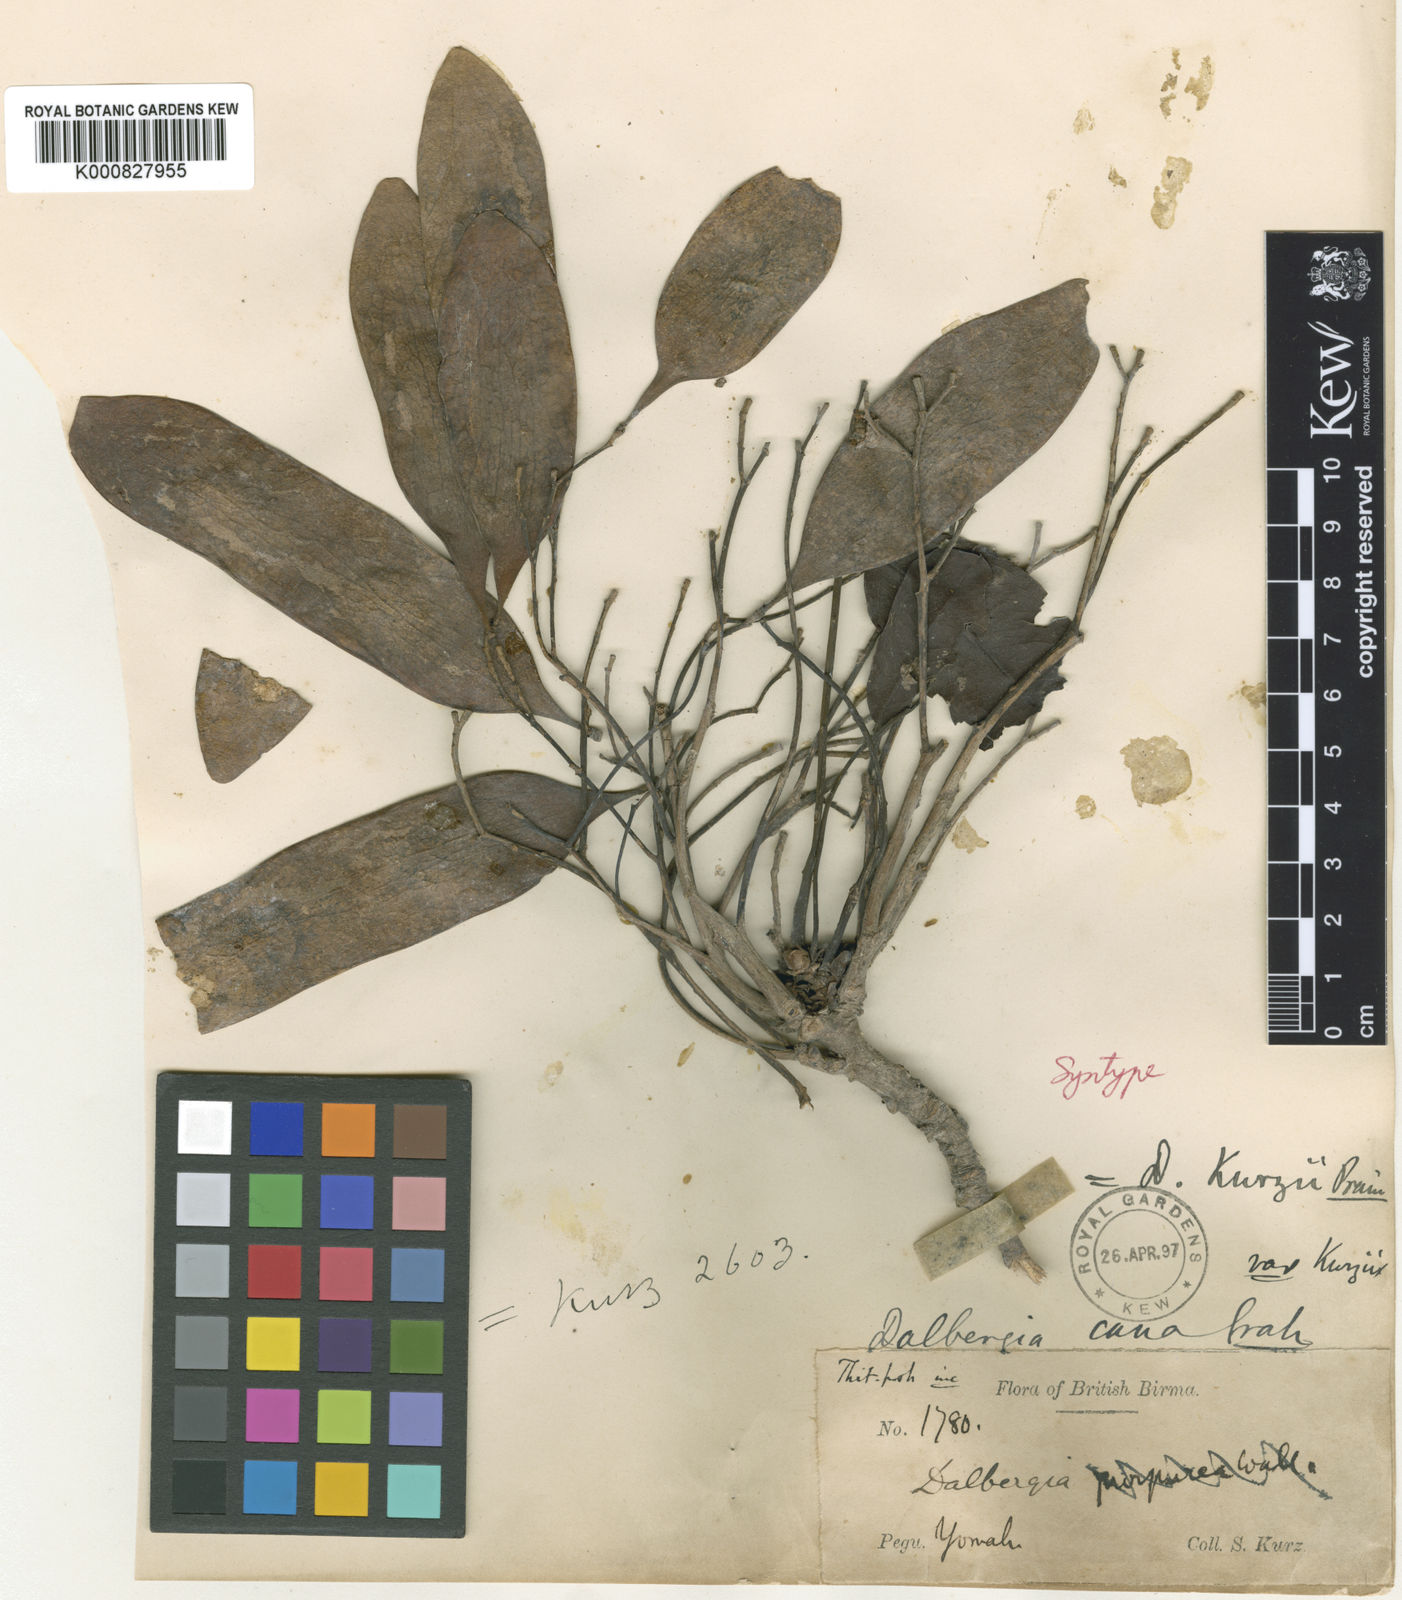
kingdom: Plantae
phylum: Tracheophyta
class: Magnoliopsida
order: Fabales
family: Fabaceae
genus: Dalbergia
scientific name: Dalbergia cana
